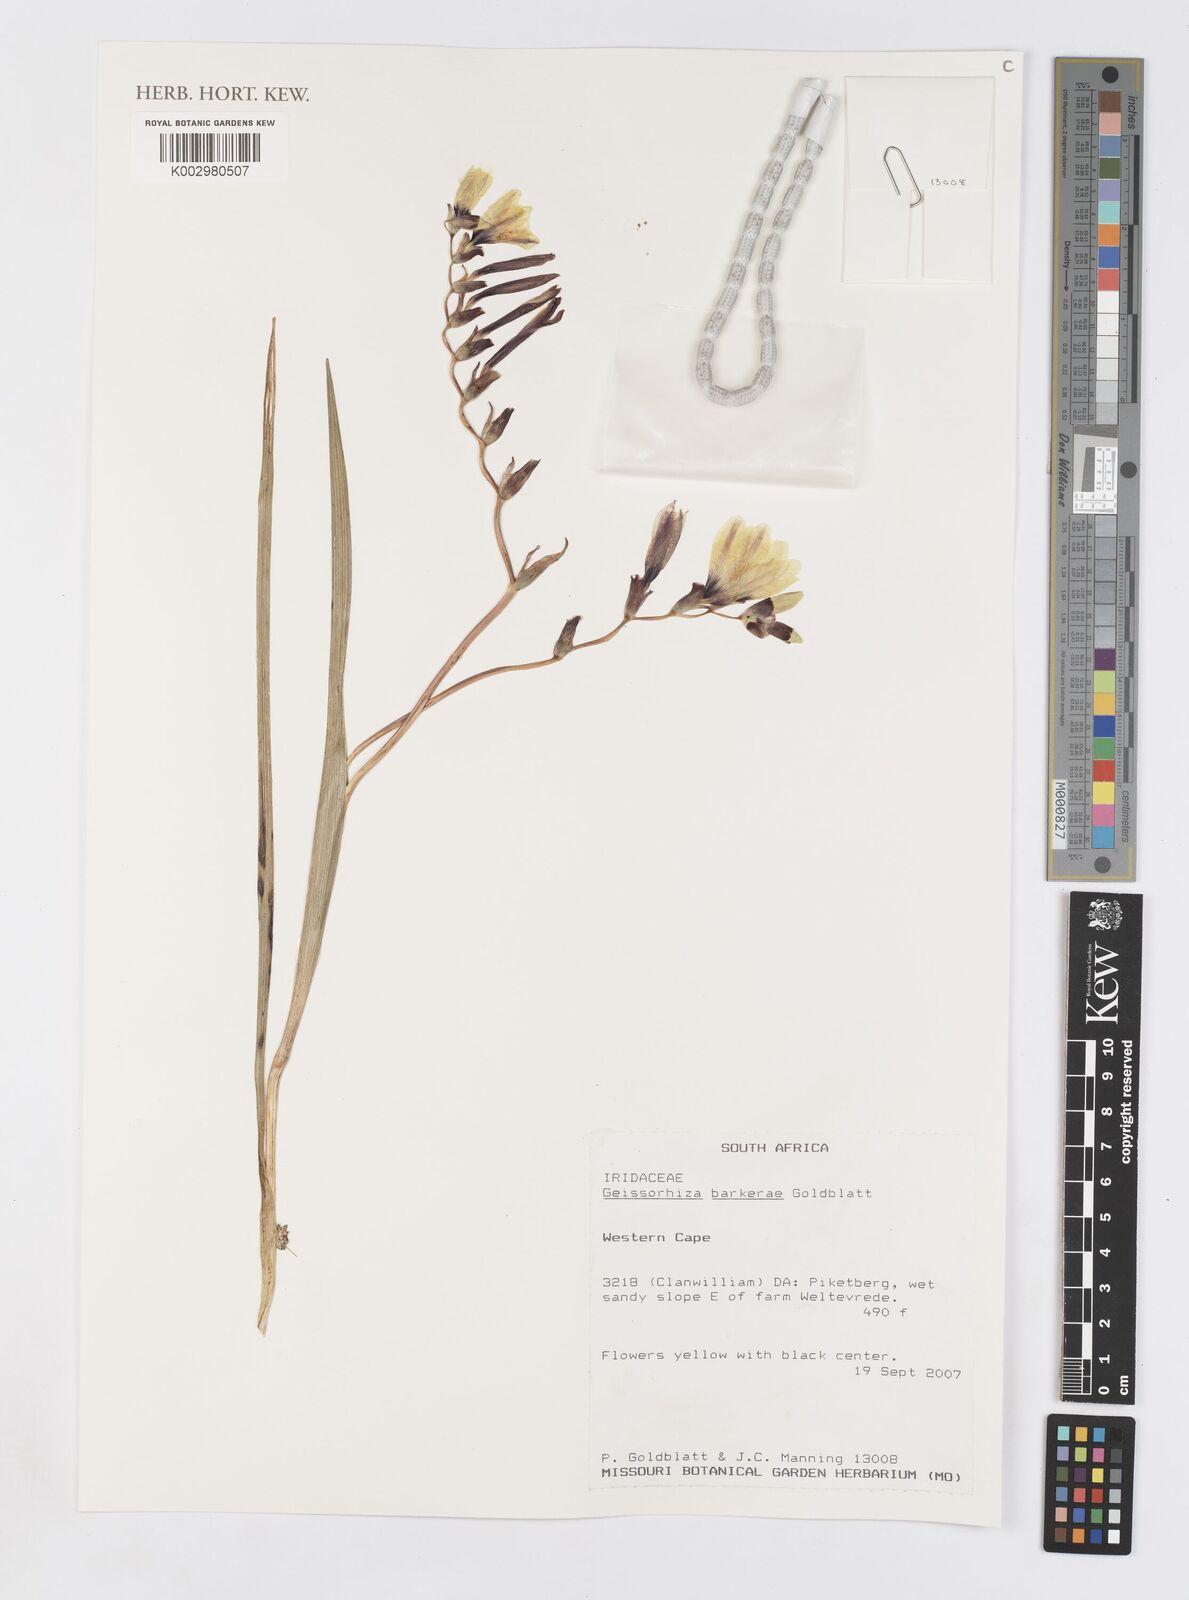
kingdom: Plantae
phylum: Tracheophyta
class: Liliopsida
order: Asparagales
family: Iridaceae
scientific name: Iridaceae
